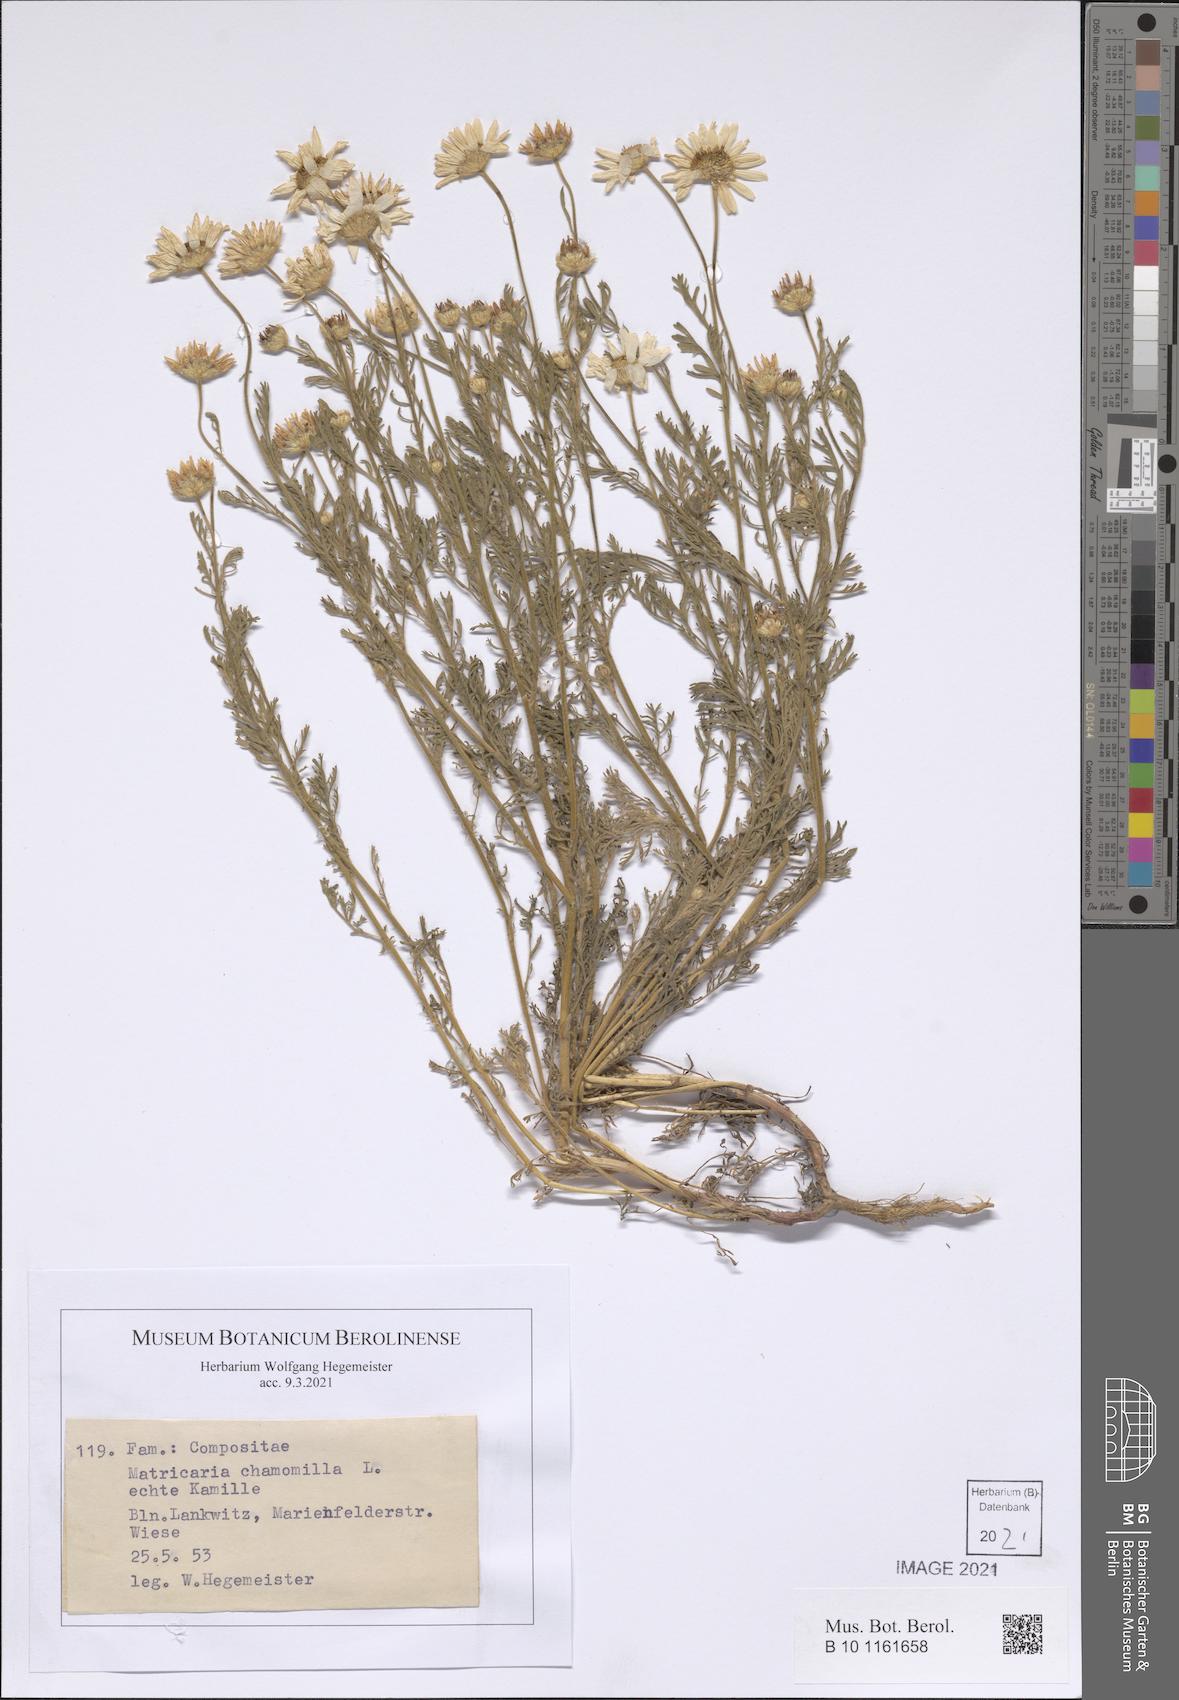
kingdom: Plantae
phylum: Tracheophyta
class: Magnoliopsida
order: Asterales
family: Asteraceae
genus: Matricaria
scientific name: Matricaria chamomilla
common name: Scented mayweed
